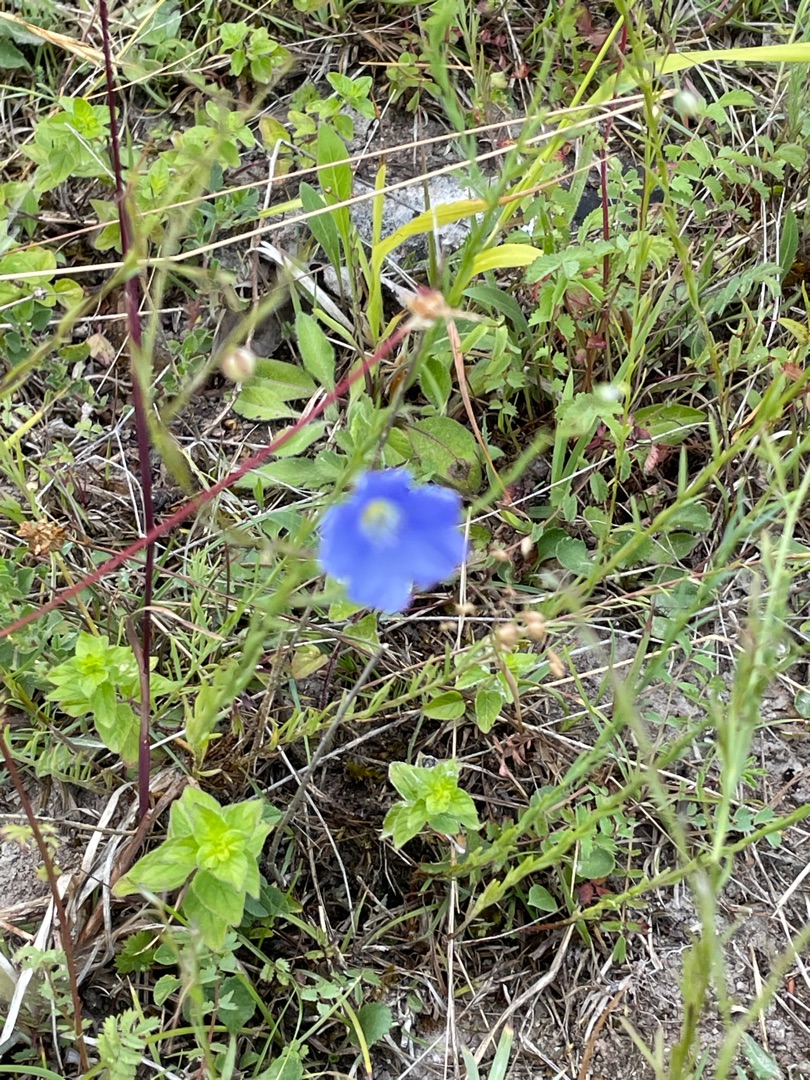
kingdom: Plantae
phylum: Tracheophyta
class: Magnoliopsida
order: Malpighiales
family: Linaceae
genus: Linum
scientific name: Linum austriacum
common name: Østrigsk hør
